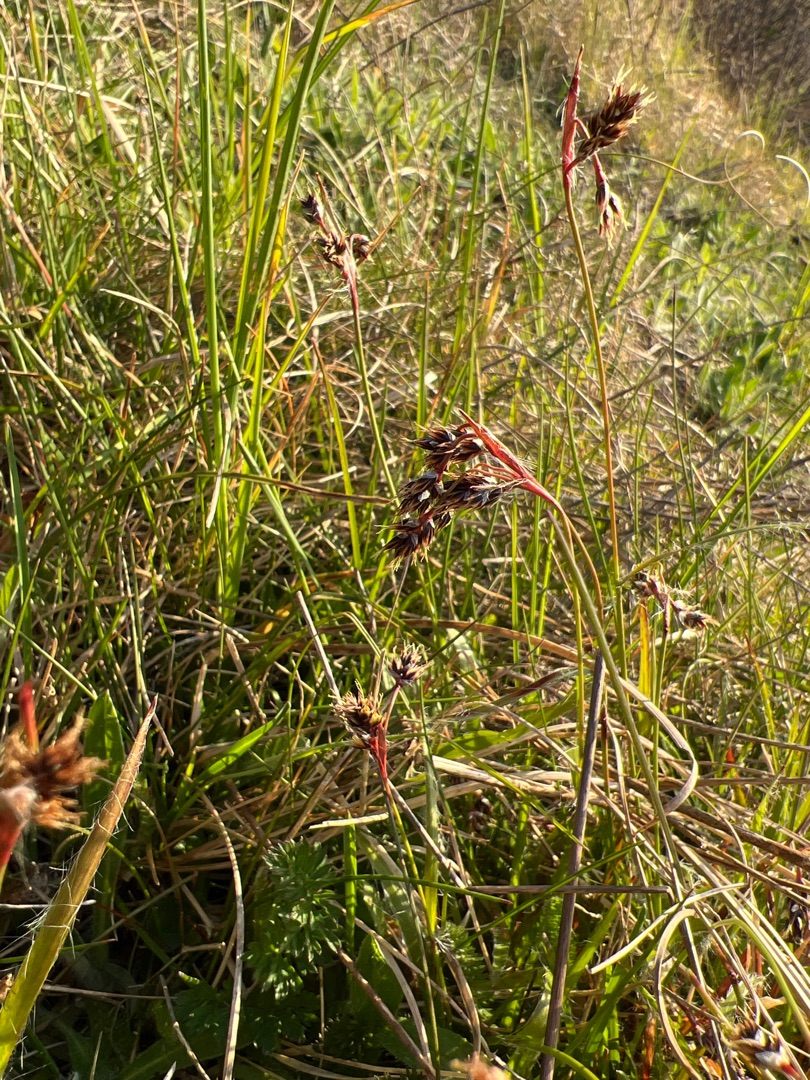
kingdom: Plantae
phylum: Tracheophyta
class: Liliopsida
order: Poales
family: Juncaceae
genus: Luzula
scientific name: Luzula campestris
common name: Mark-frytle
